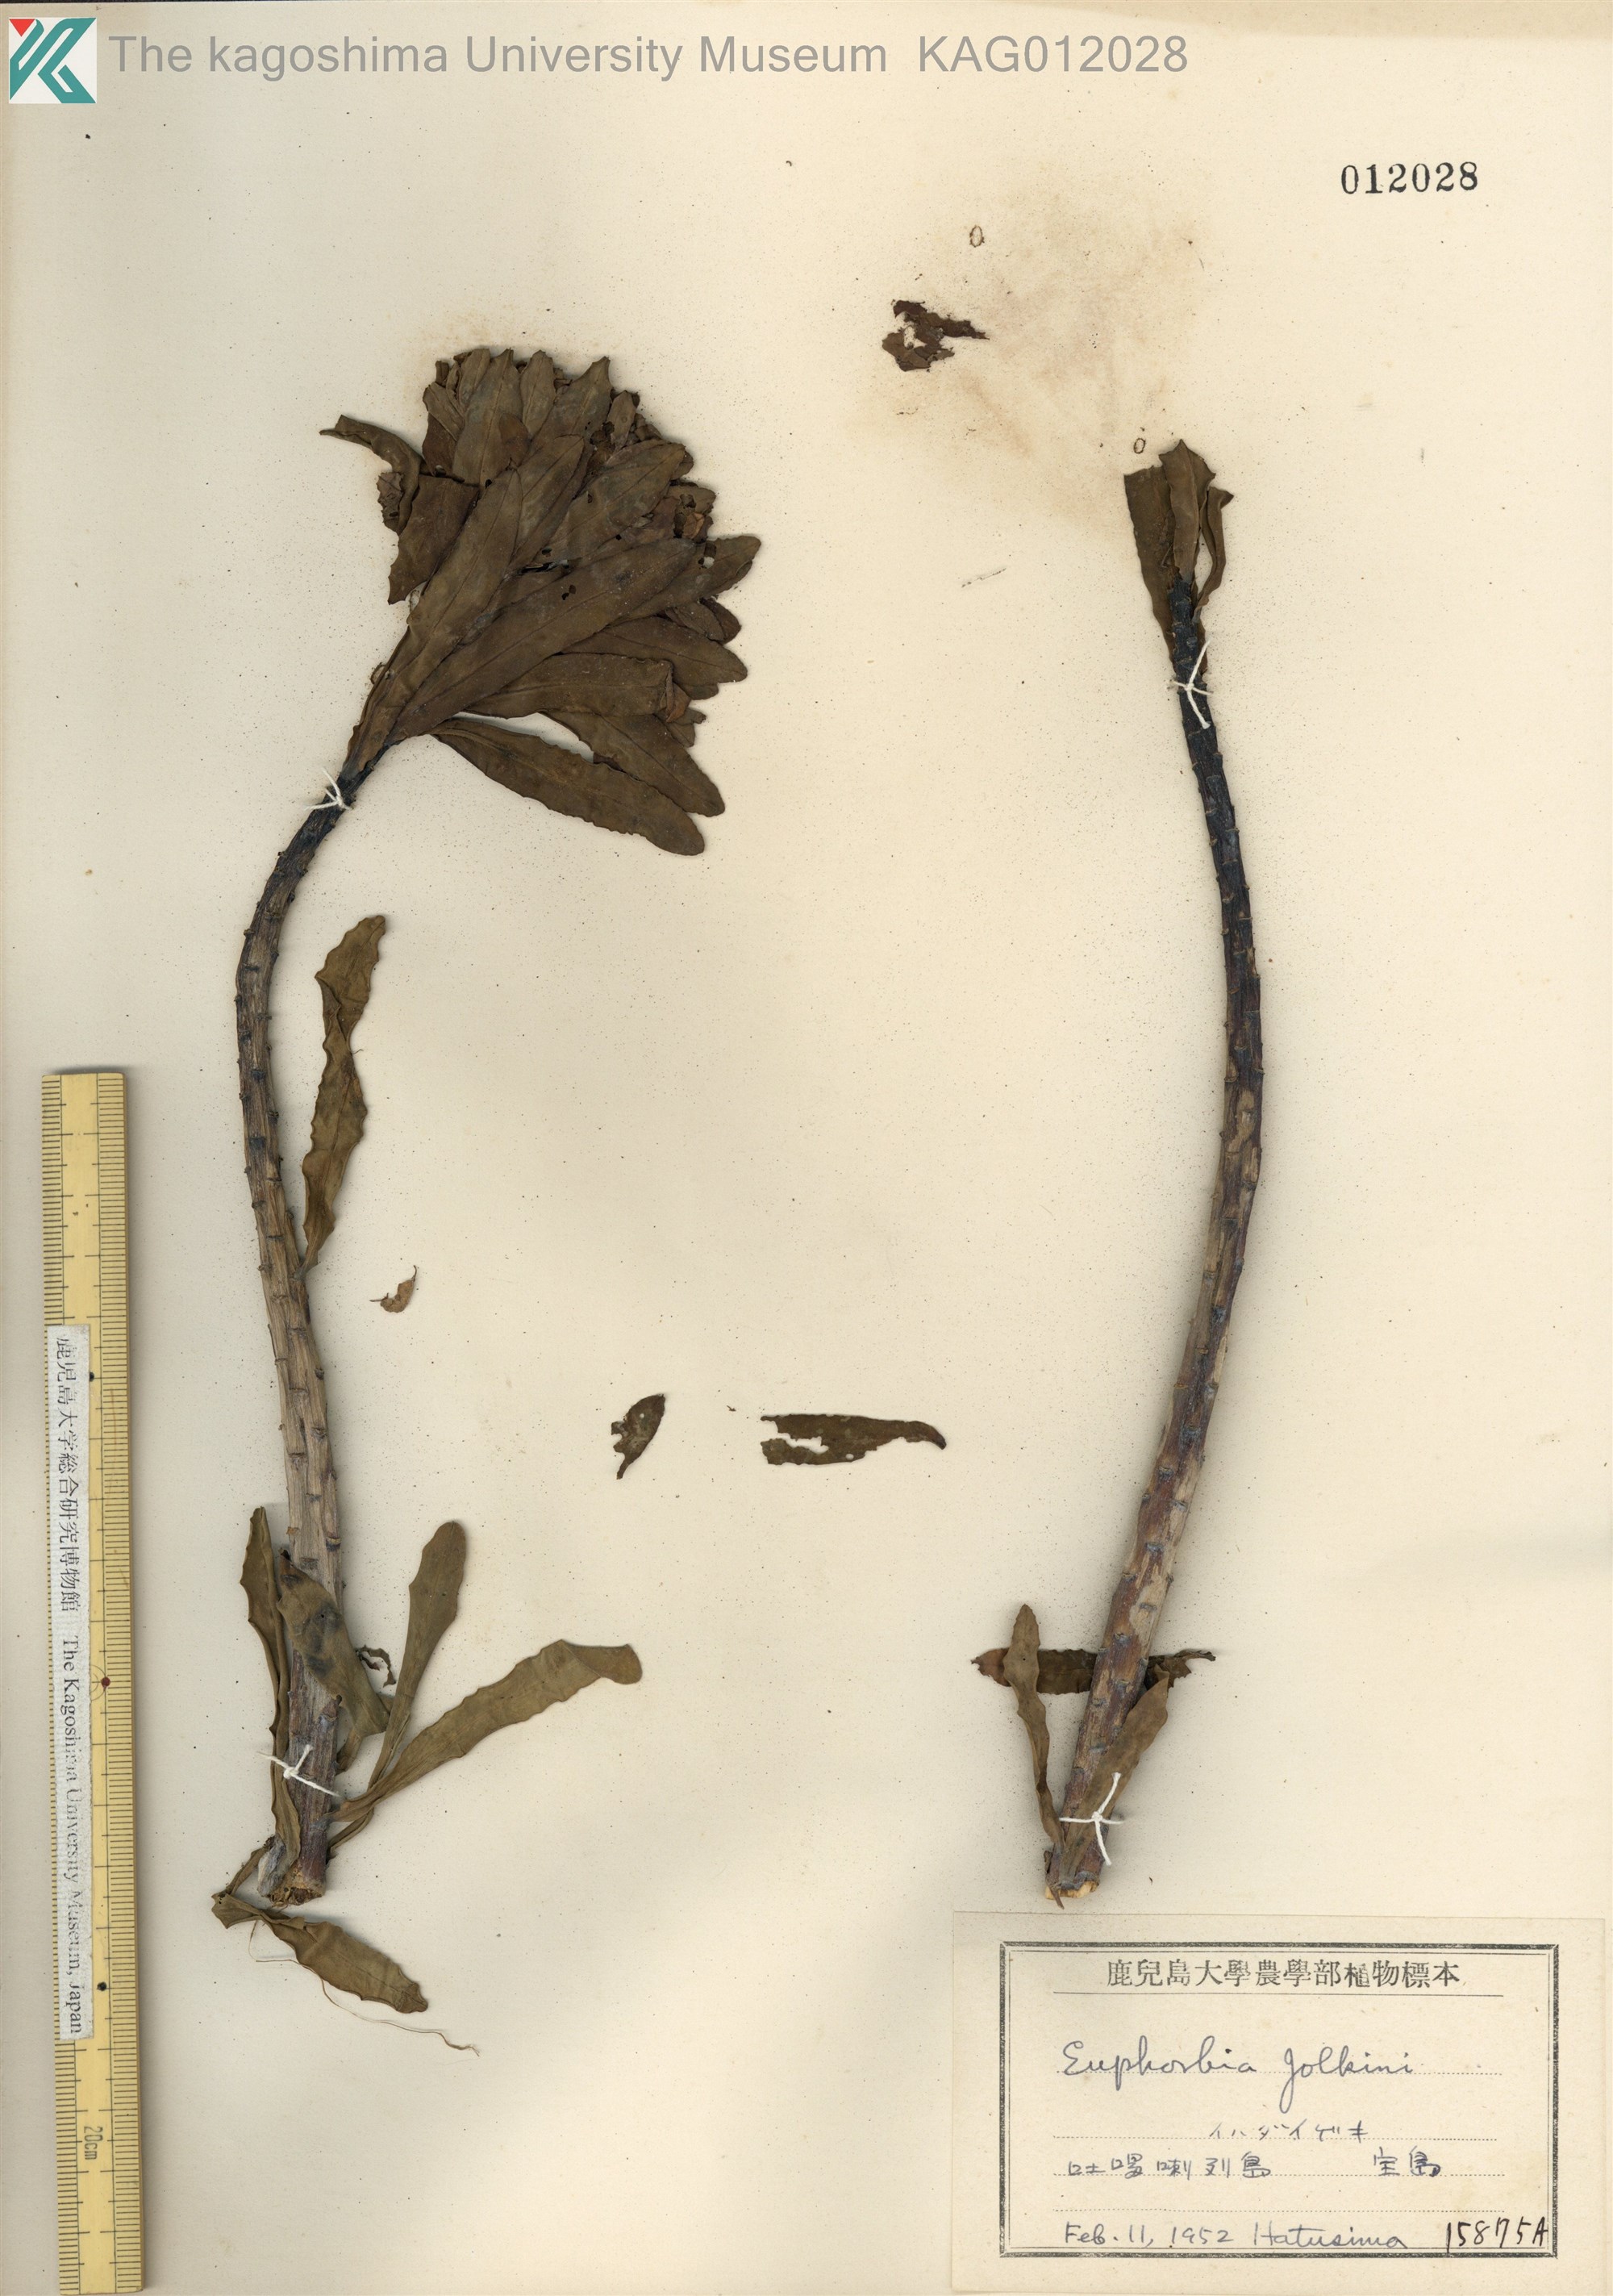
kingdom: Plantae
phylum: Tracheophyta
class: Magnoliopsida
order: Malpighiales
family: Euphorbiaceae
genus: Euphorbia
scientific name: Euphorbia jolkinii
